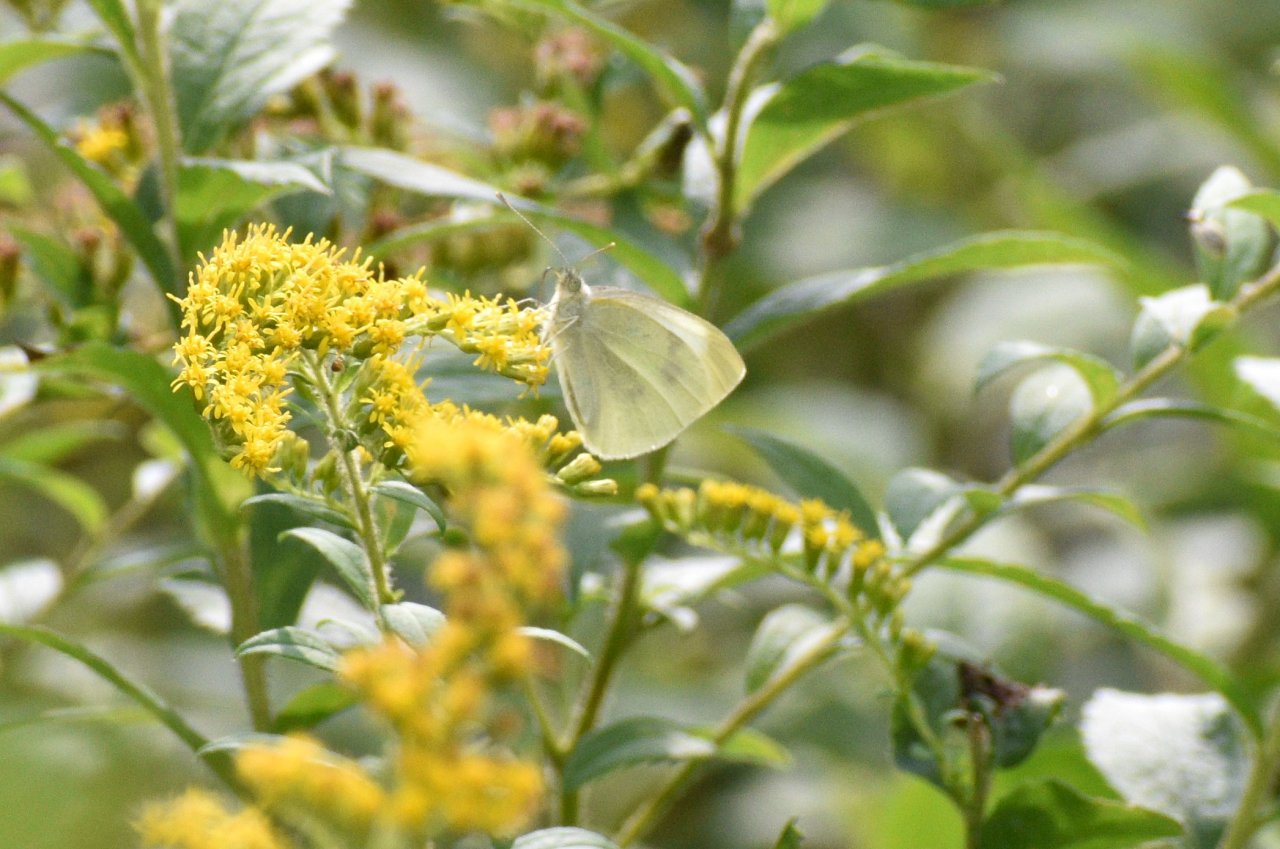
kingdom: Animalia
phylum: Arthropoda
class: Insecta
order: Lepidoptera
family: Pieridae
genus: Pieris
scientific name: Pieris rapae
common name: Cabbage White
